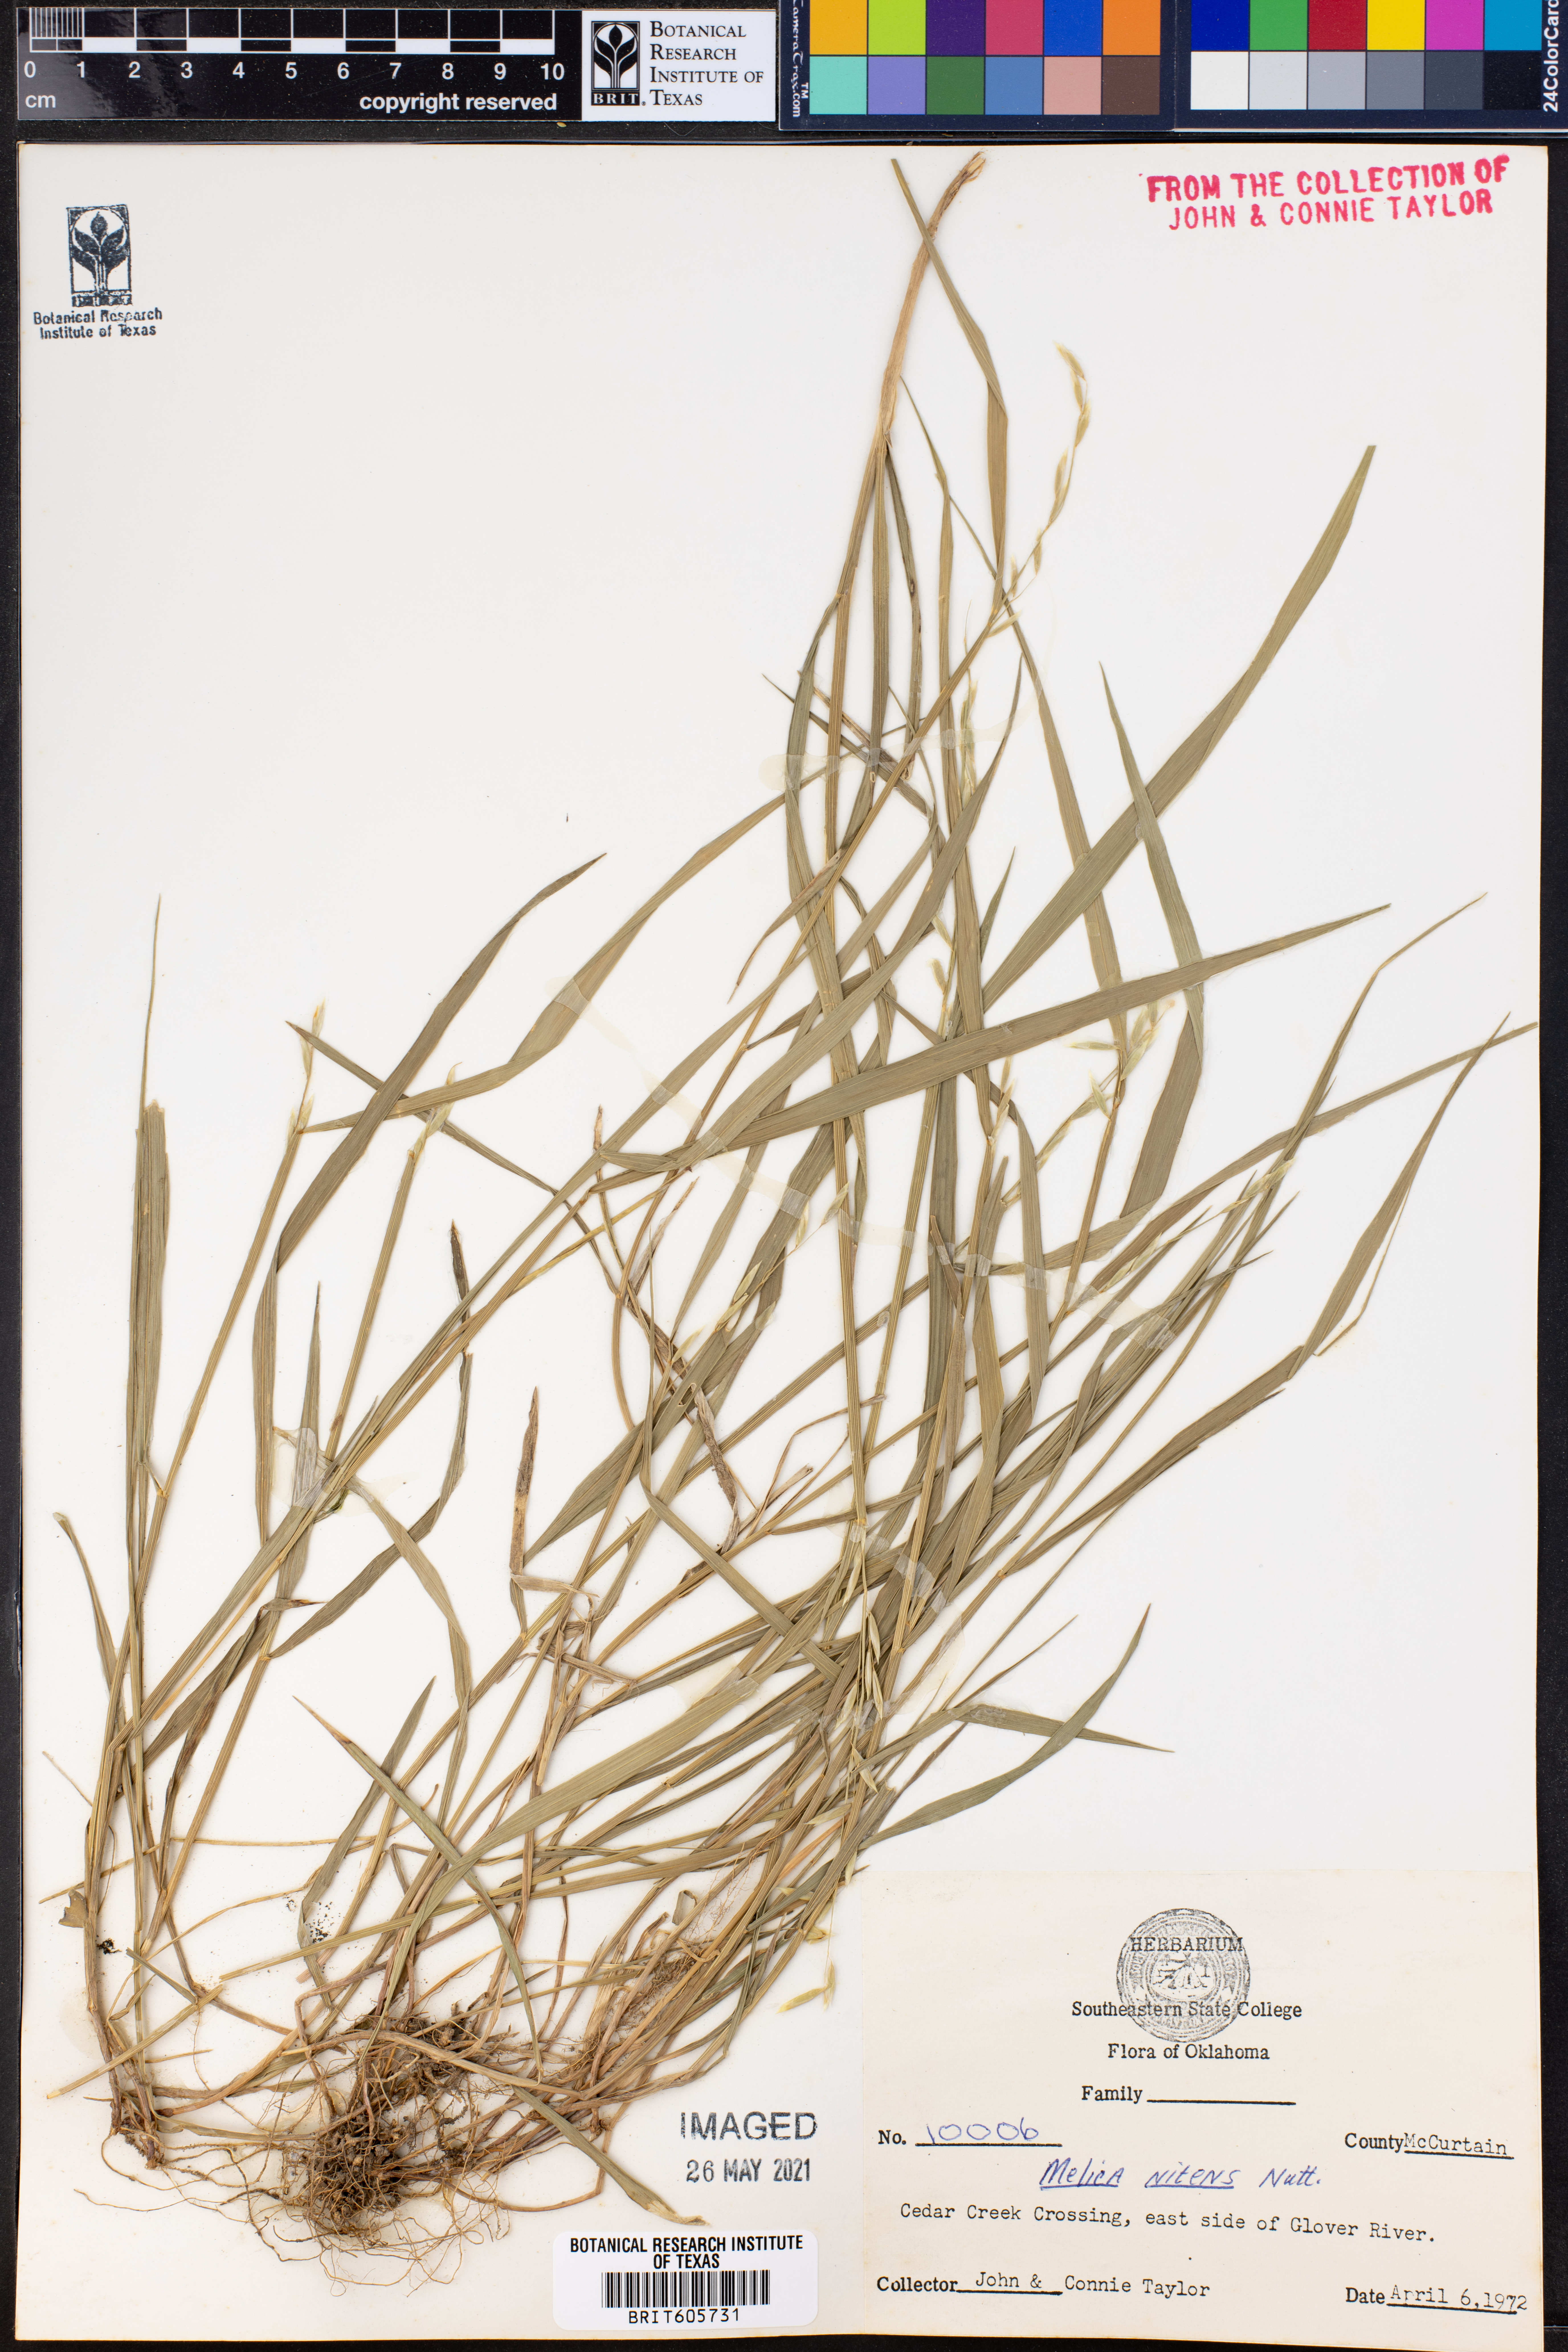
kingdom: Plantae
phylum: Tracheophyta
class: Liliopsida
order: Poales
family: Poaceae
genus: Melica
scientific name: Melica nitens
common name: Three-flower melic
